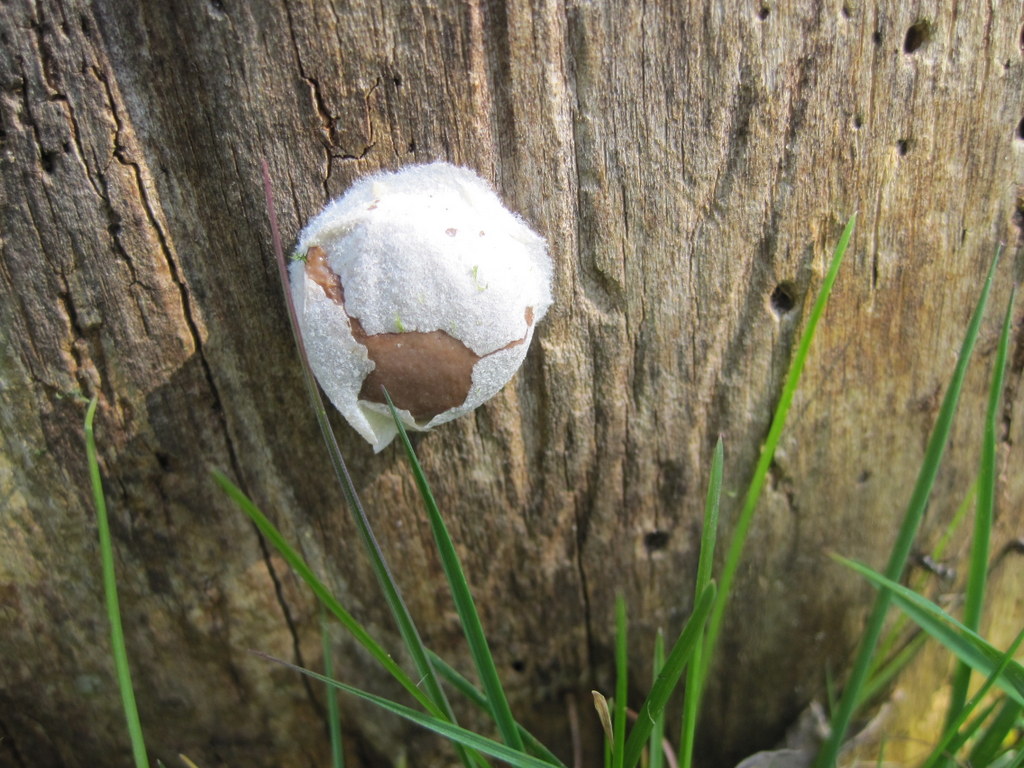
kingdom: Protozoa
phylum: Mycetozoa
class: Myxomycetes
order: Cribrariales
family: Tubiferaceae
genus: Reticularia
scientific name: Reticularia lycoperdon
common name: skinnende støvpude
